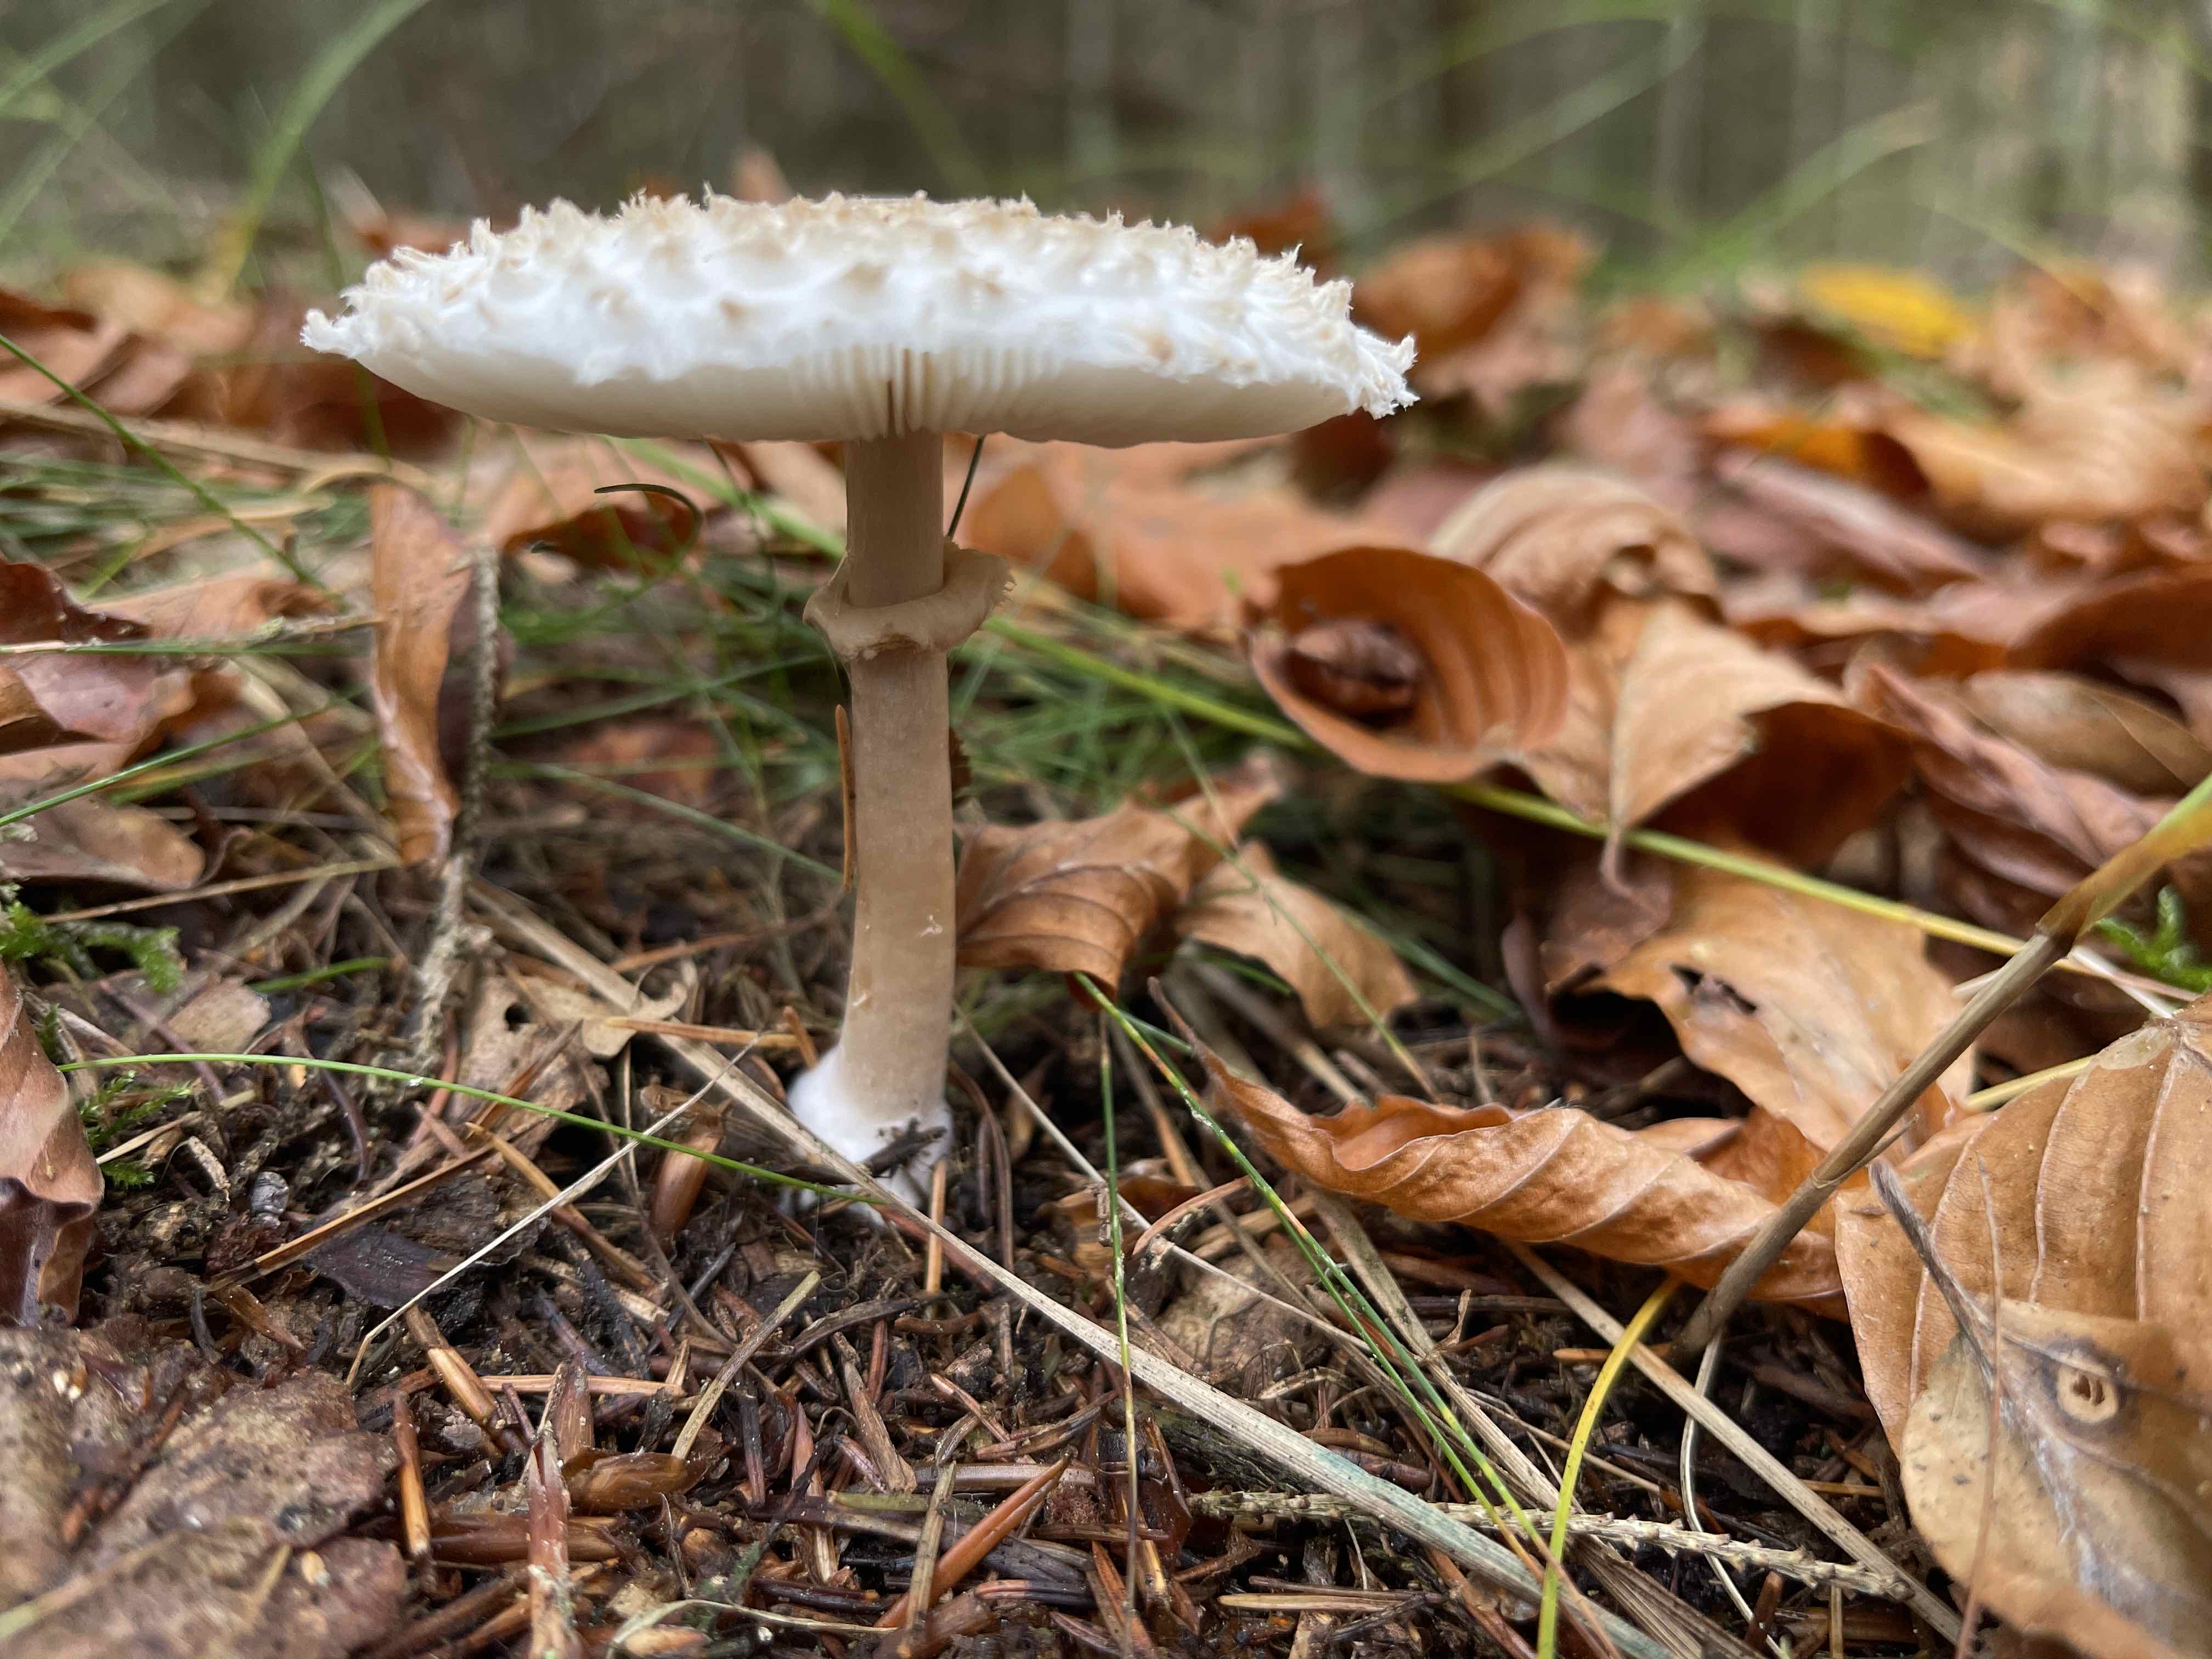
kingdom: Fungi
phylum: Basidiomycota
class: Agaricomycetes
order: Agaricales
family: Agaricaceae
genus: Leucoagaricus
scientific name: Leucoagaricus nympharum
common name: gran-silkehat
